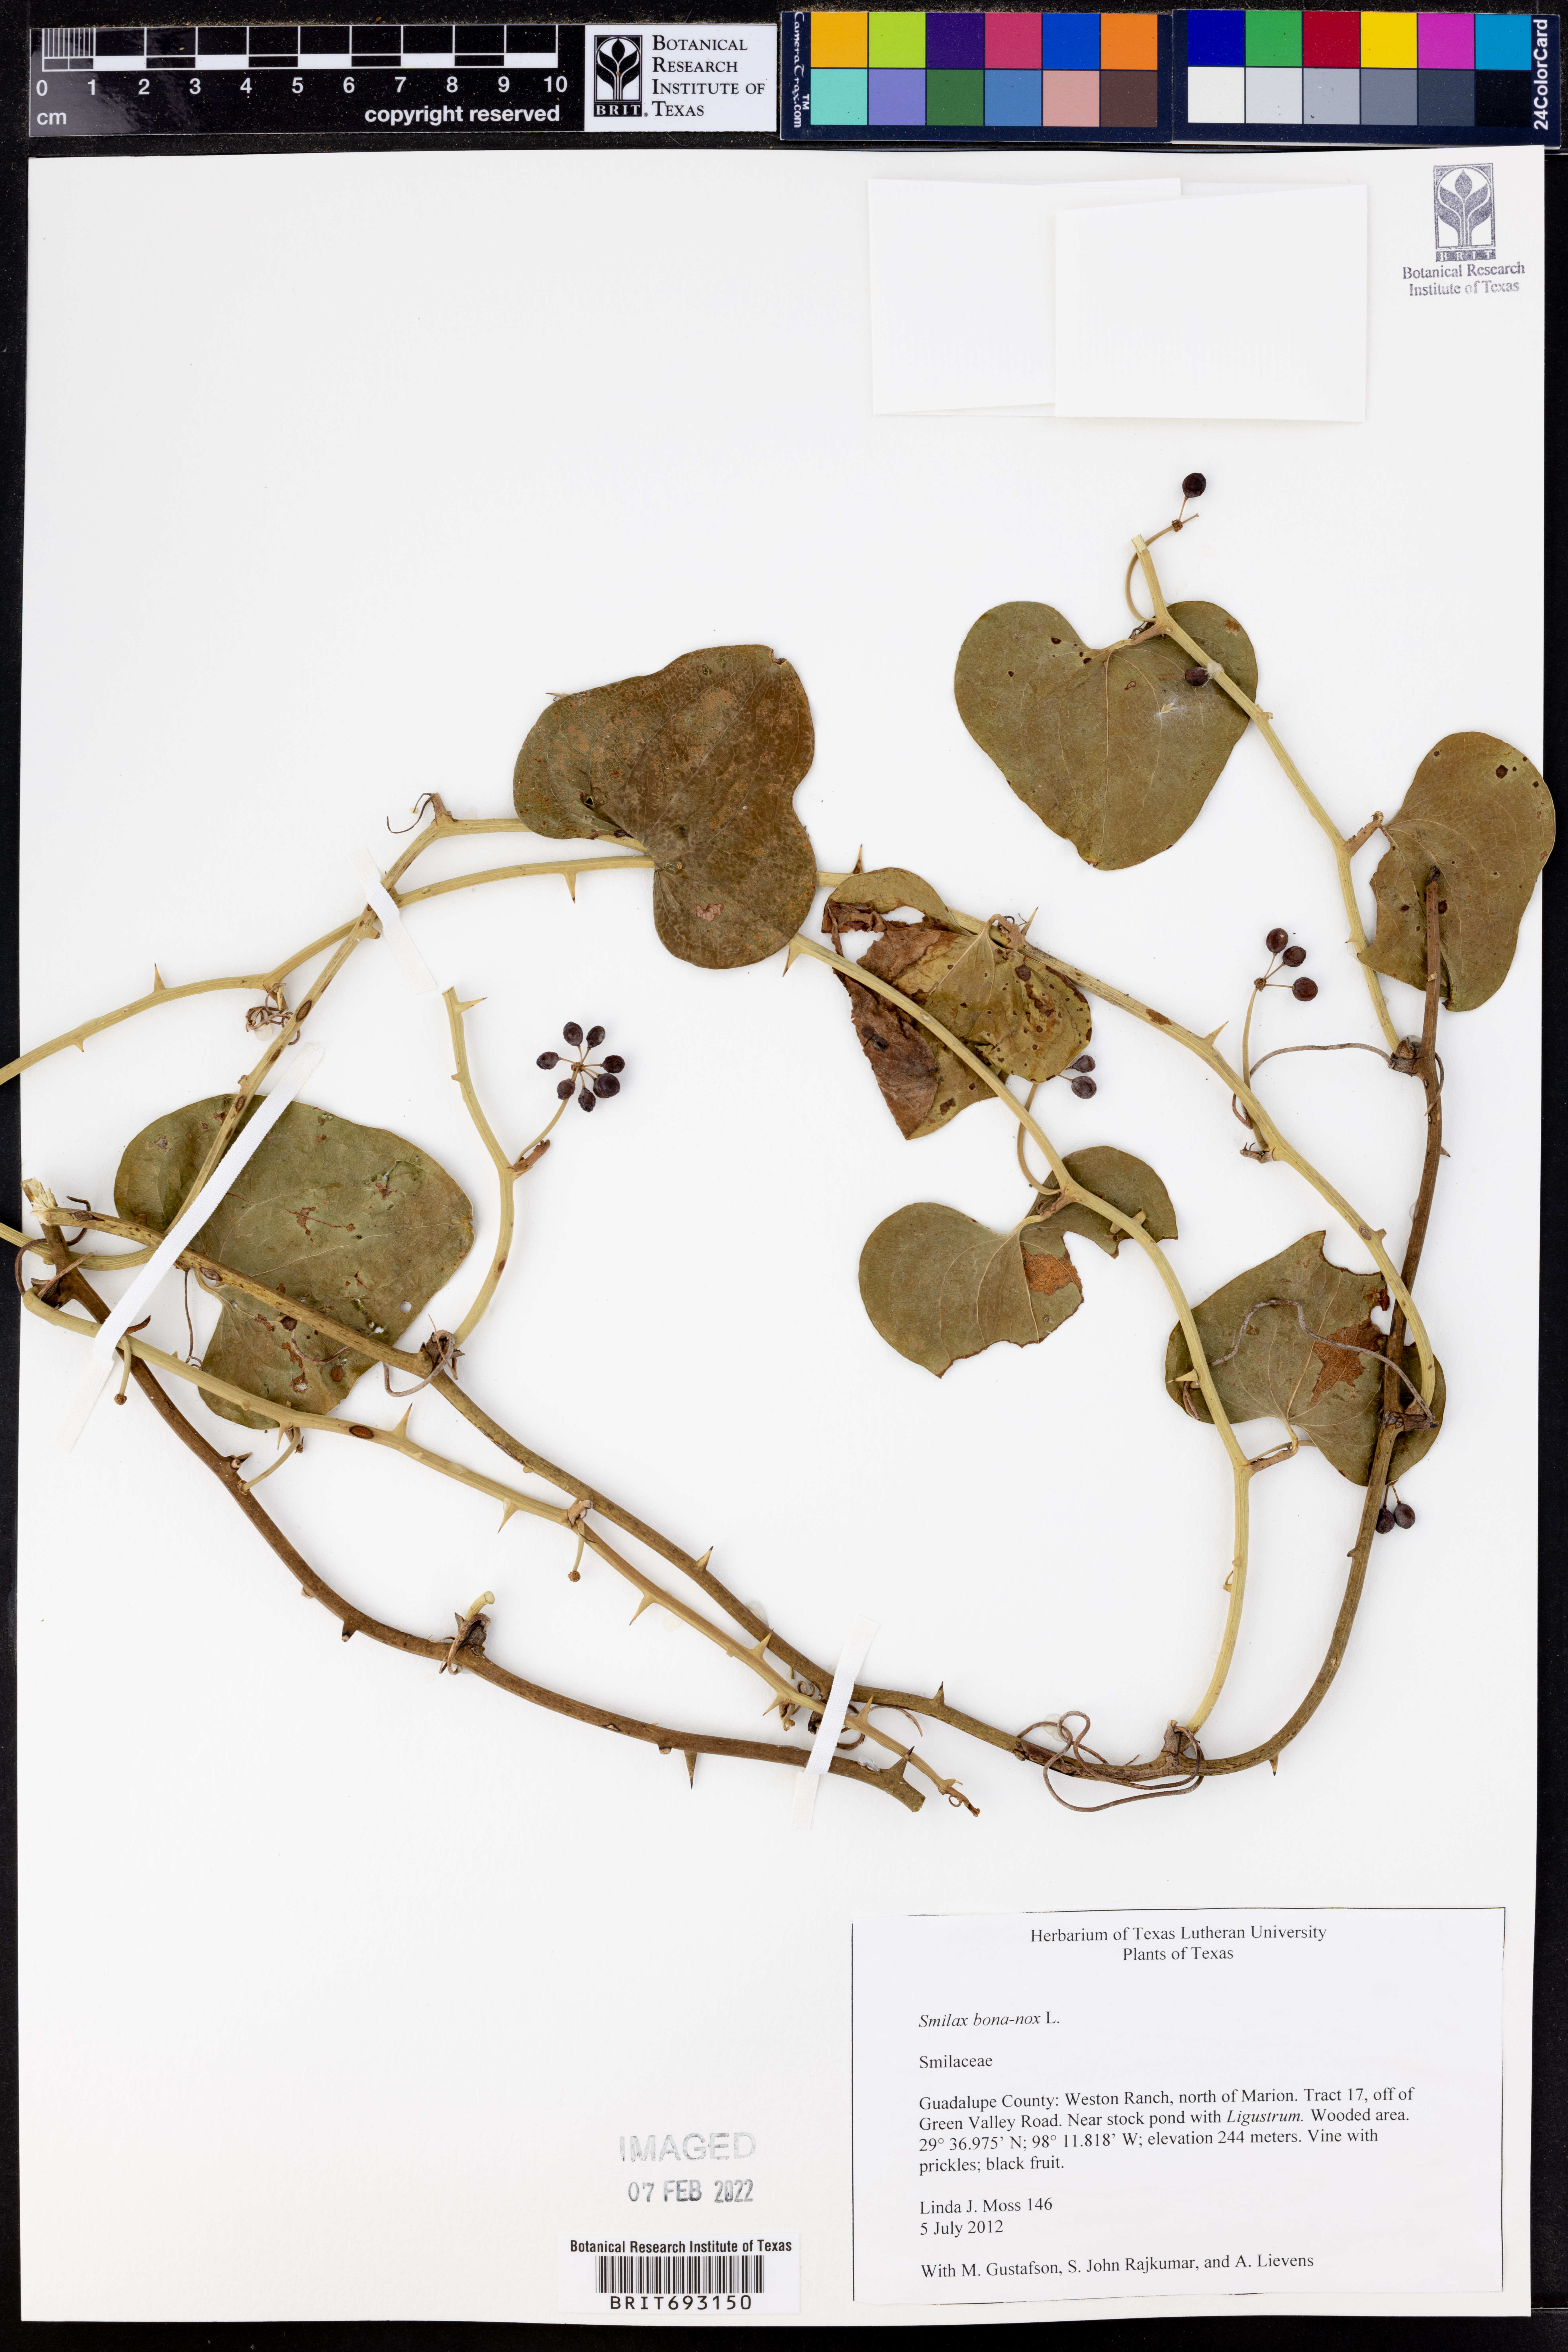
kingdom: Plantae
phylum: Tracheophyta
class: Liliopsida
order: Liliales
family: Smilacaceae
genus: Smilax
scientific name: Smilax bona-nox
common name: Catbrier
